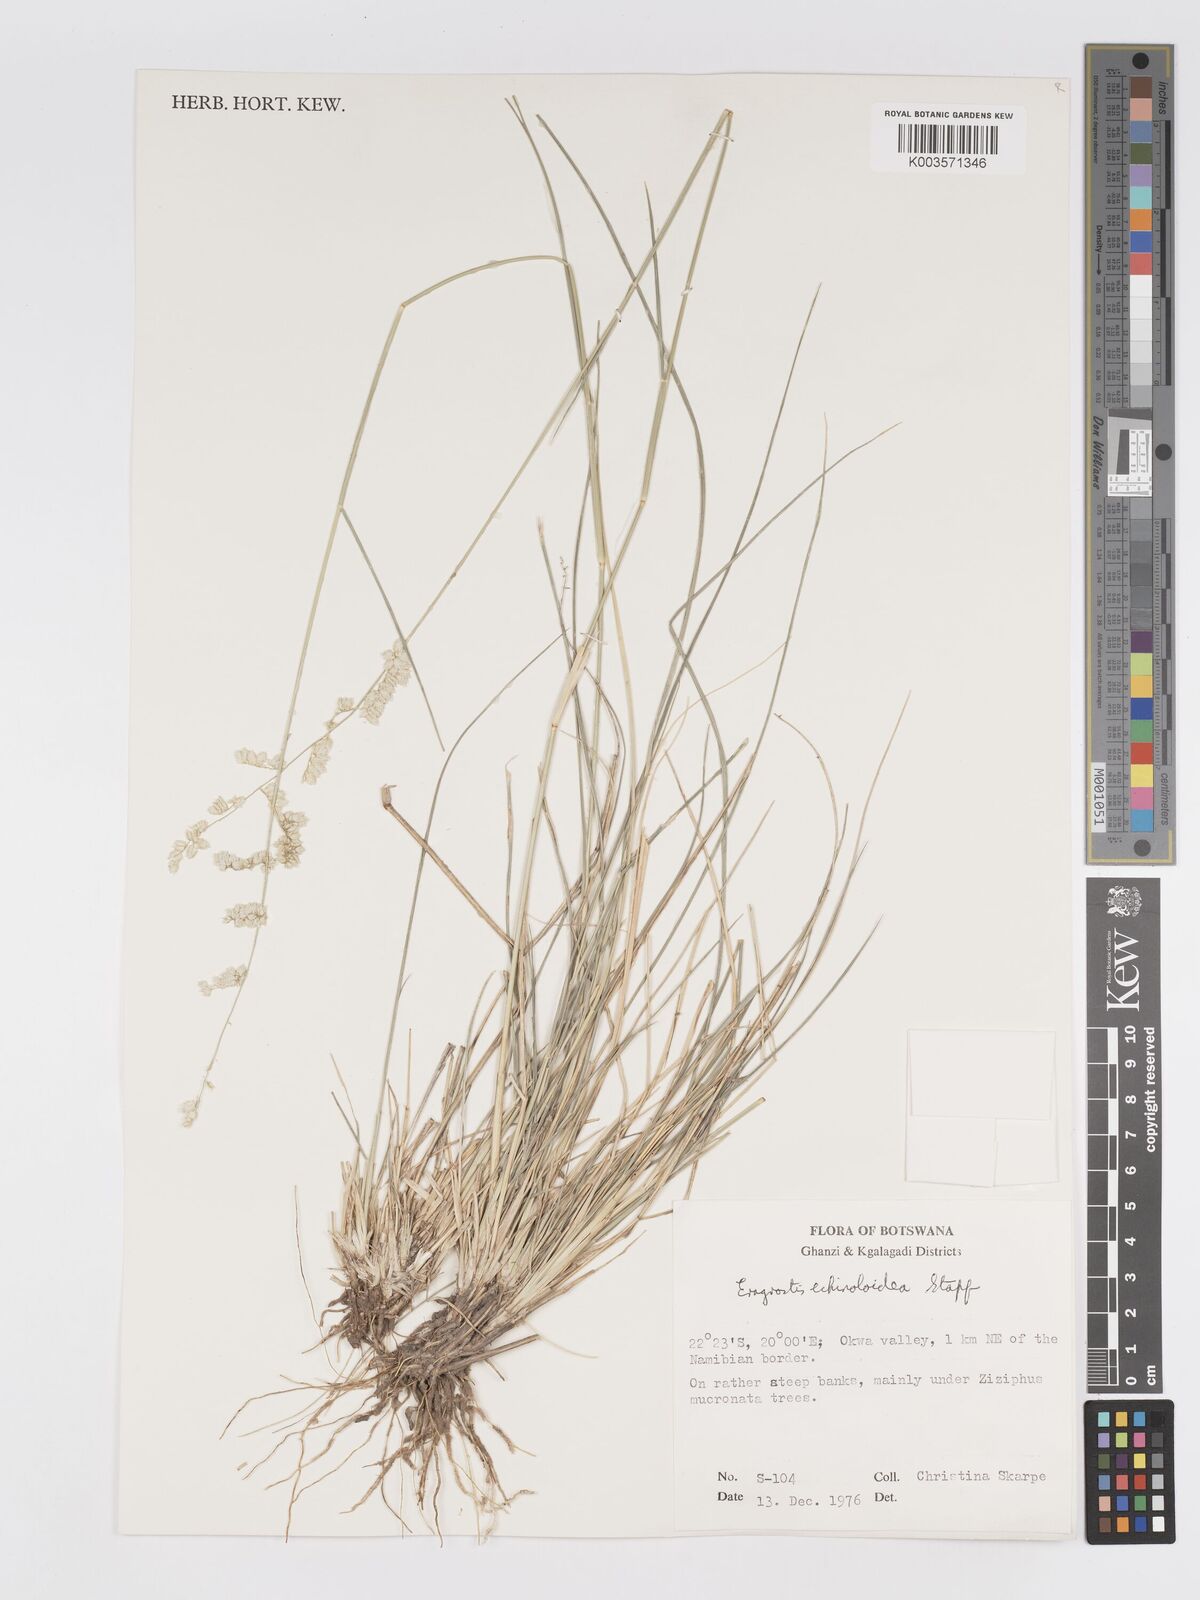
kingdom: Plantae
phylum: Tracheophyta
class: Liliopsida
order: Poales
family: Poaceae
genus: Eragrostis
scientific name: Eragrostis echinochloidea
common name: African lovegrass
